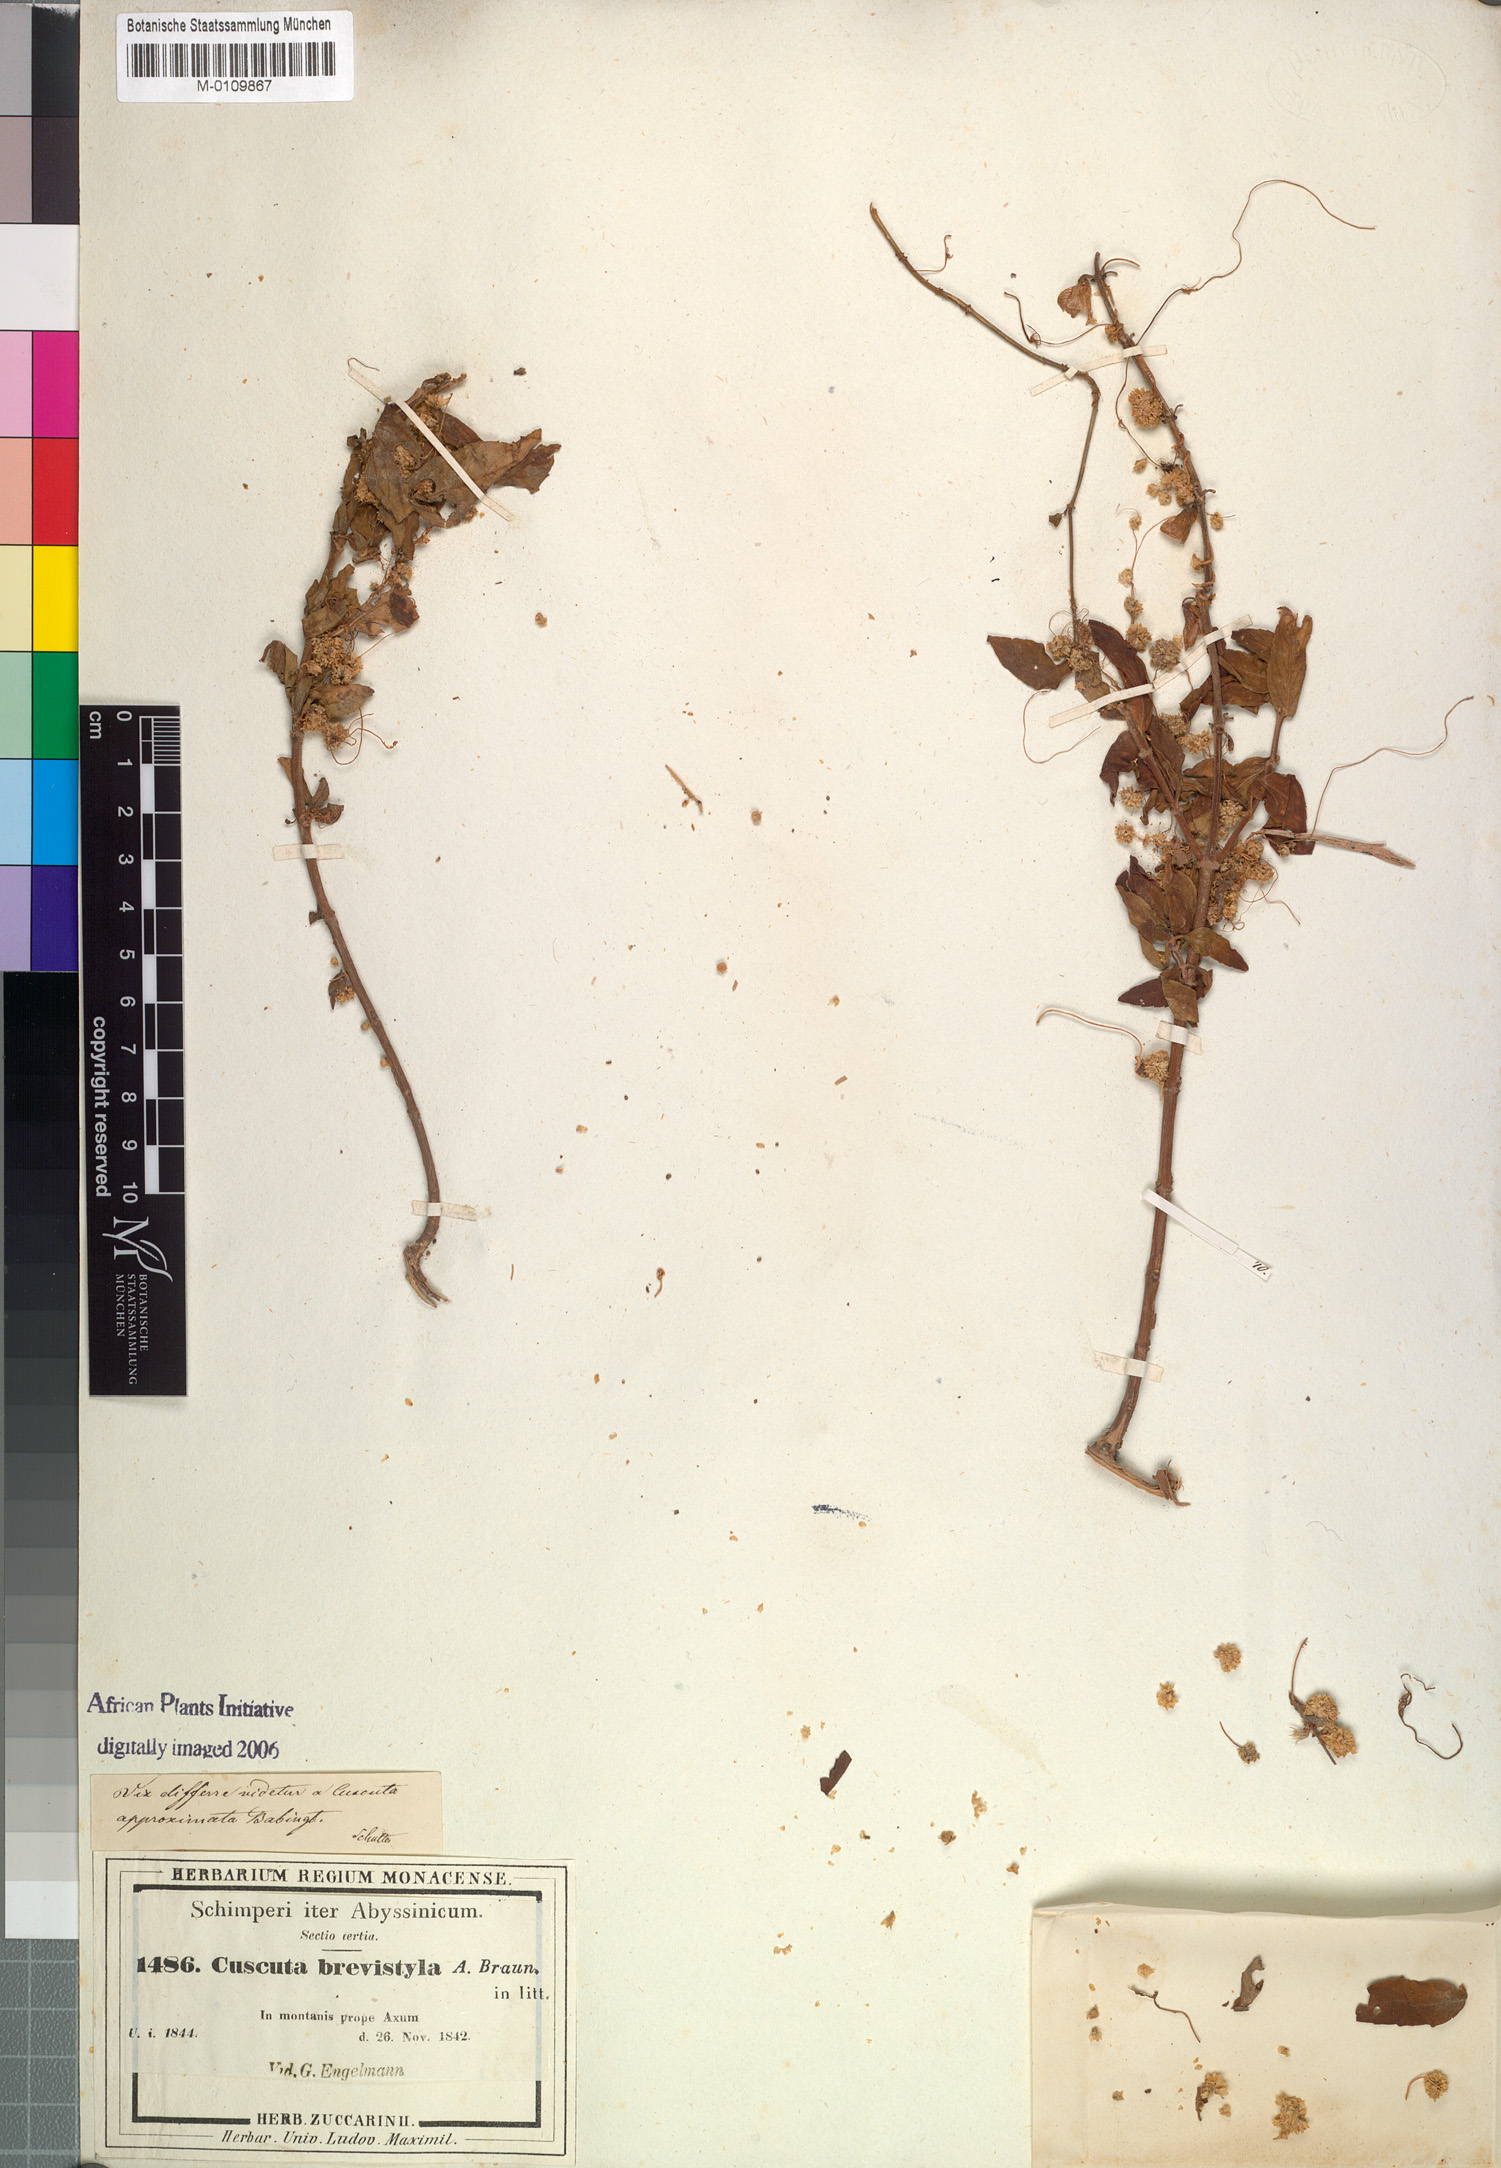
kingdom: Plantae
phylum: Tracheophyta
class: Magnoliopsida
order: Solanales
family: Convolvulaceae
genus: Cuscuta
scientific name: Cuscuta brevistyla
